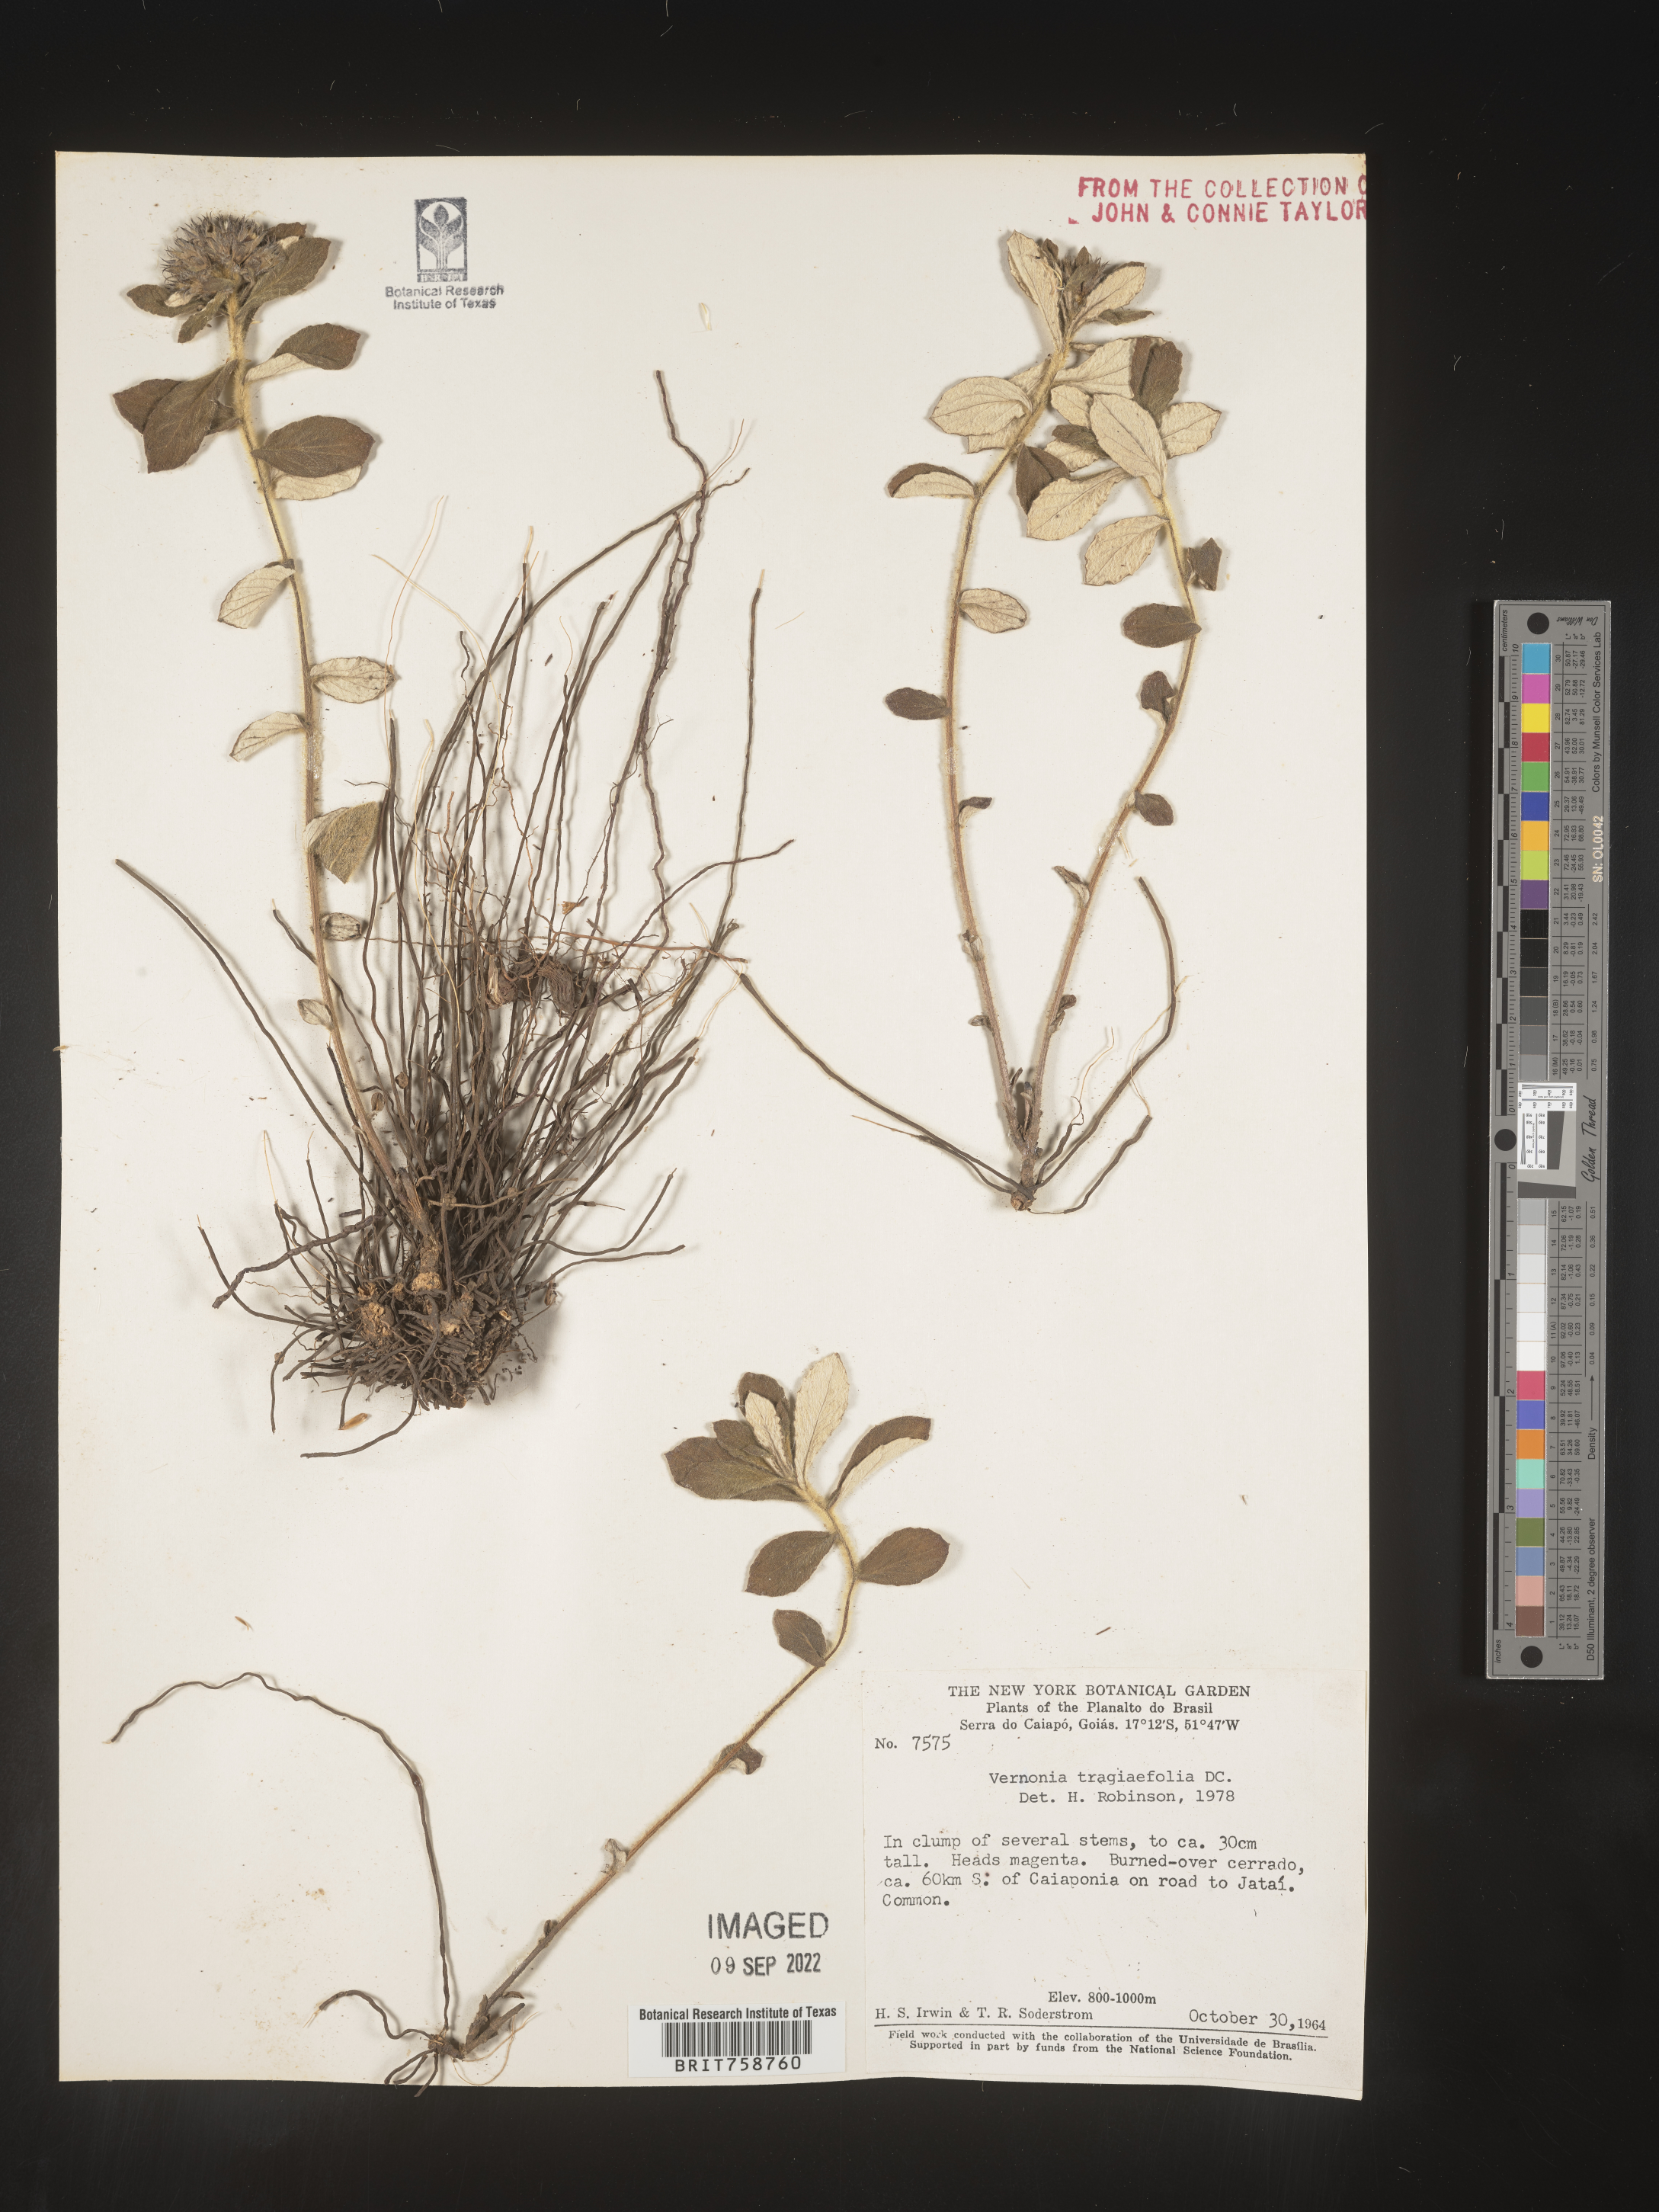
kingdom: Plantae
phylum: Tracheophyta
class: Magnoliopsida
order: Asterales
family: Asteraceae
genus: Vernonia
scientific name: Vernonia
